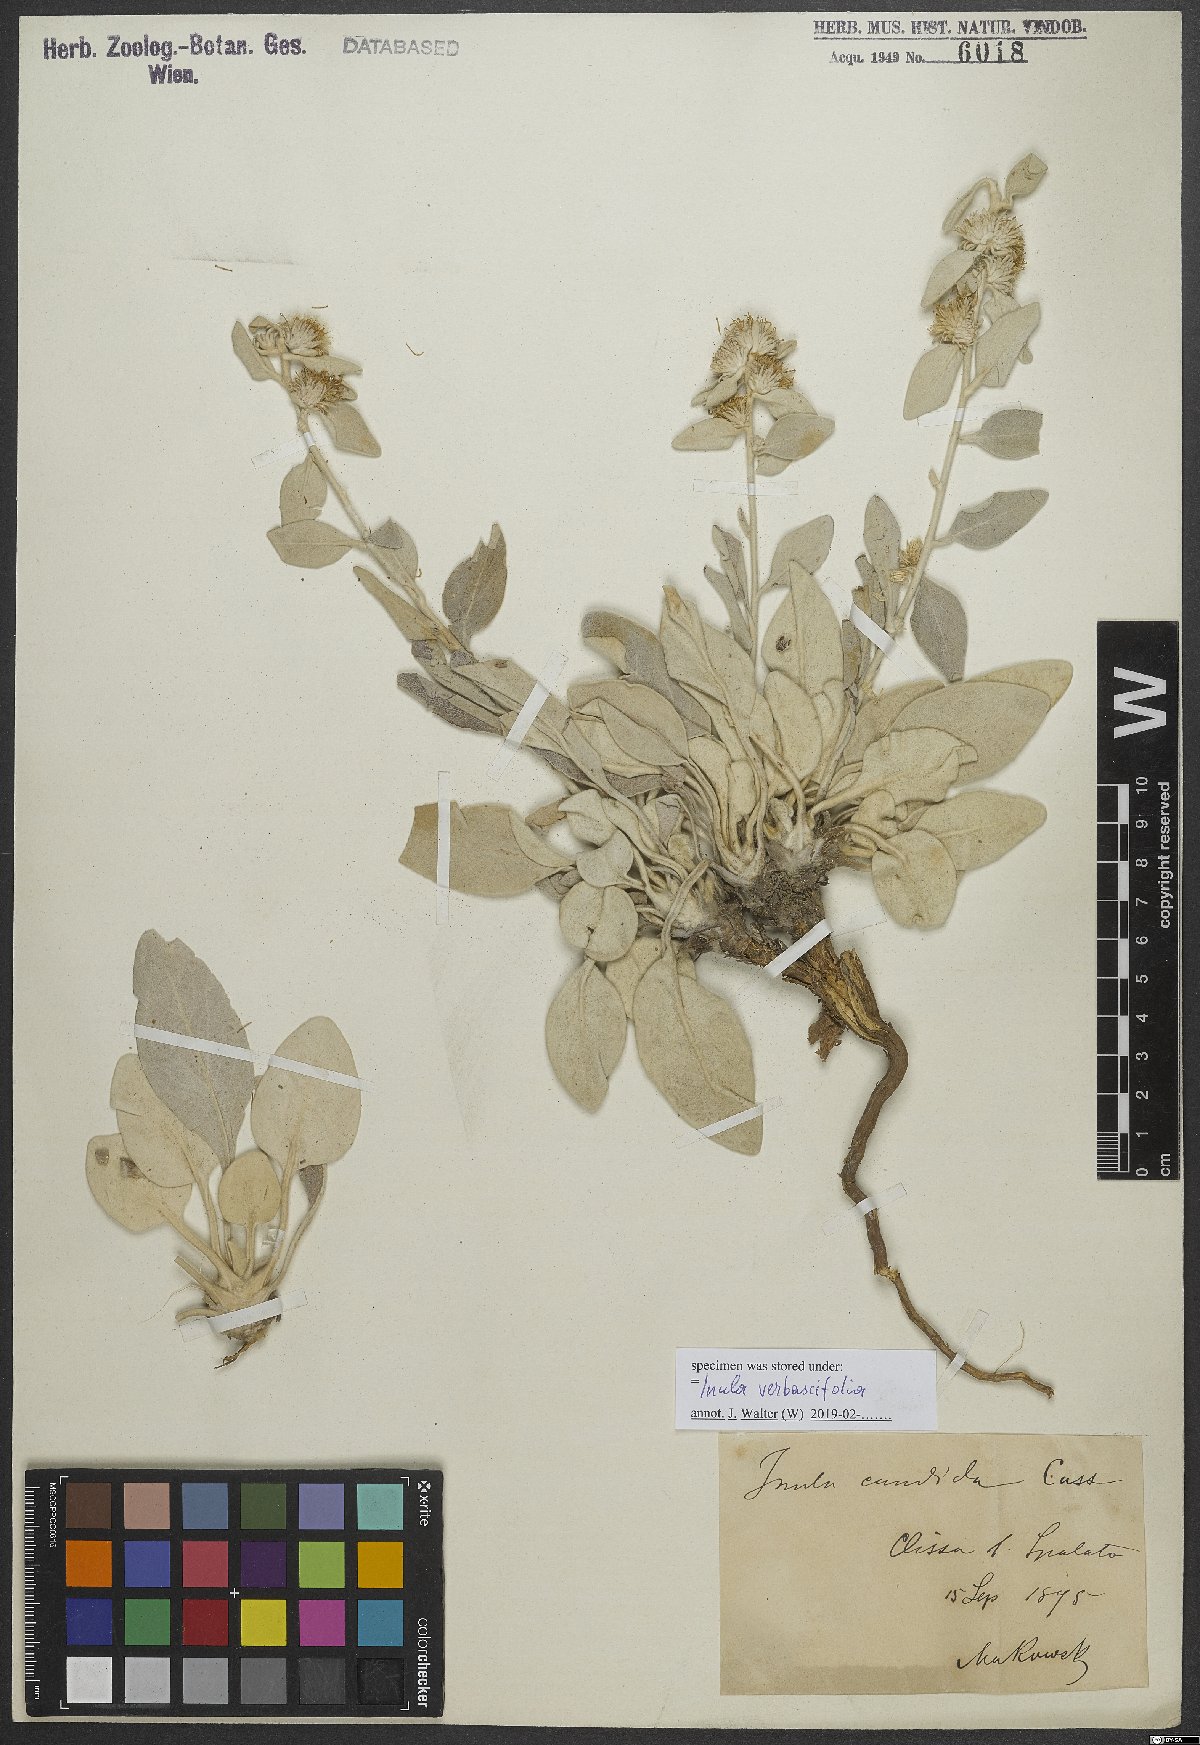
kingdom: Plantae
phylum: Tracheophyta
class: Magnoliopsida
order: Asterales
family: Asteraceae
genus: Pentanema
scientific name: Pentanema verbascifolium
